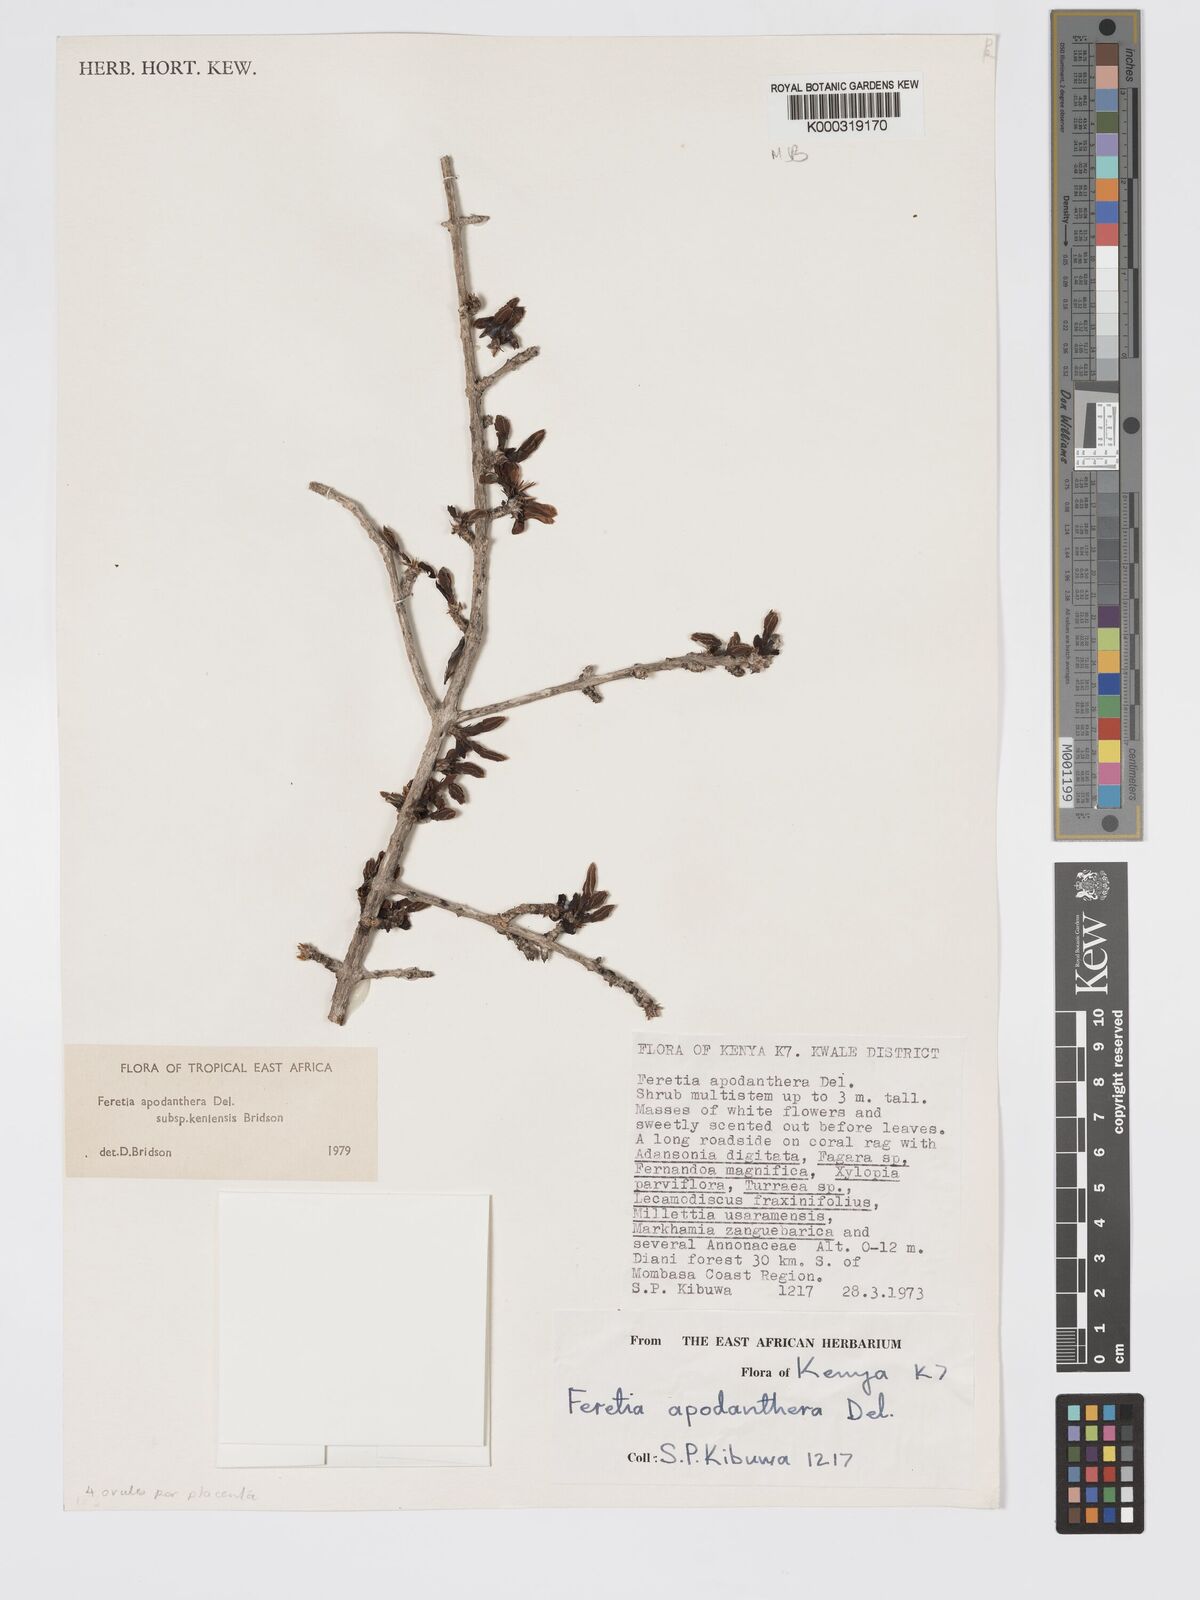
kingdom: Plantae
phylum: Tracheophyta
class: Magnoliopsida
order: Gentianales
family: Rubiaceae
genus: Feretia
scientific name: Feretia apodanthera
